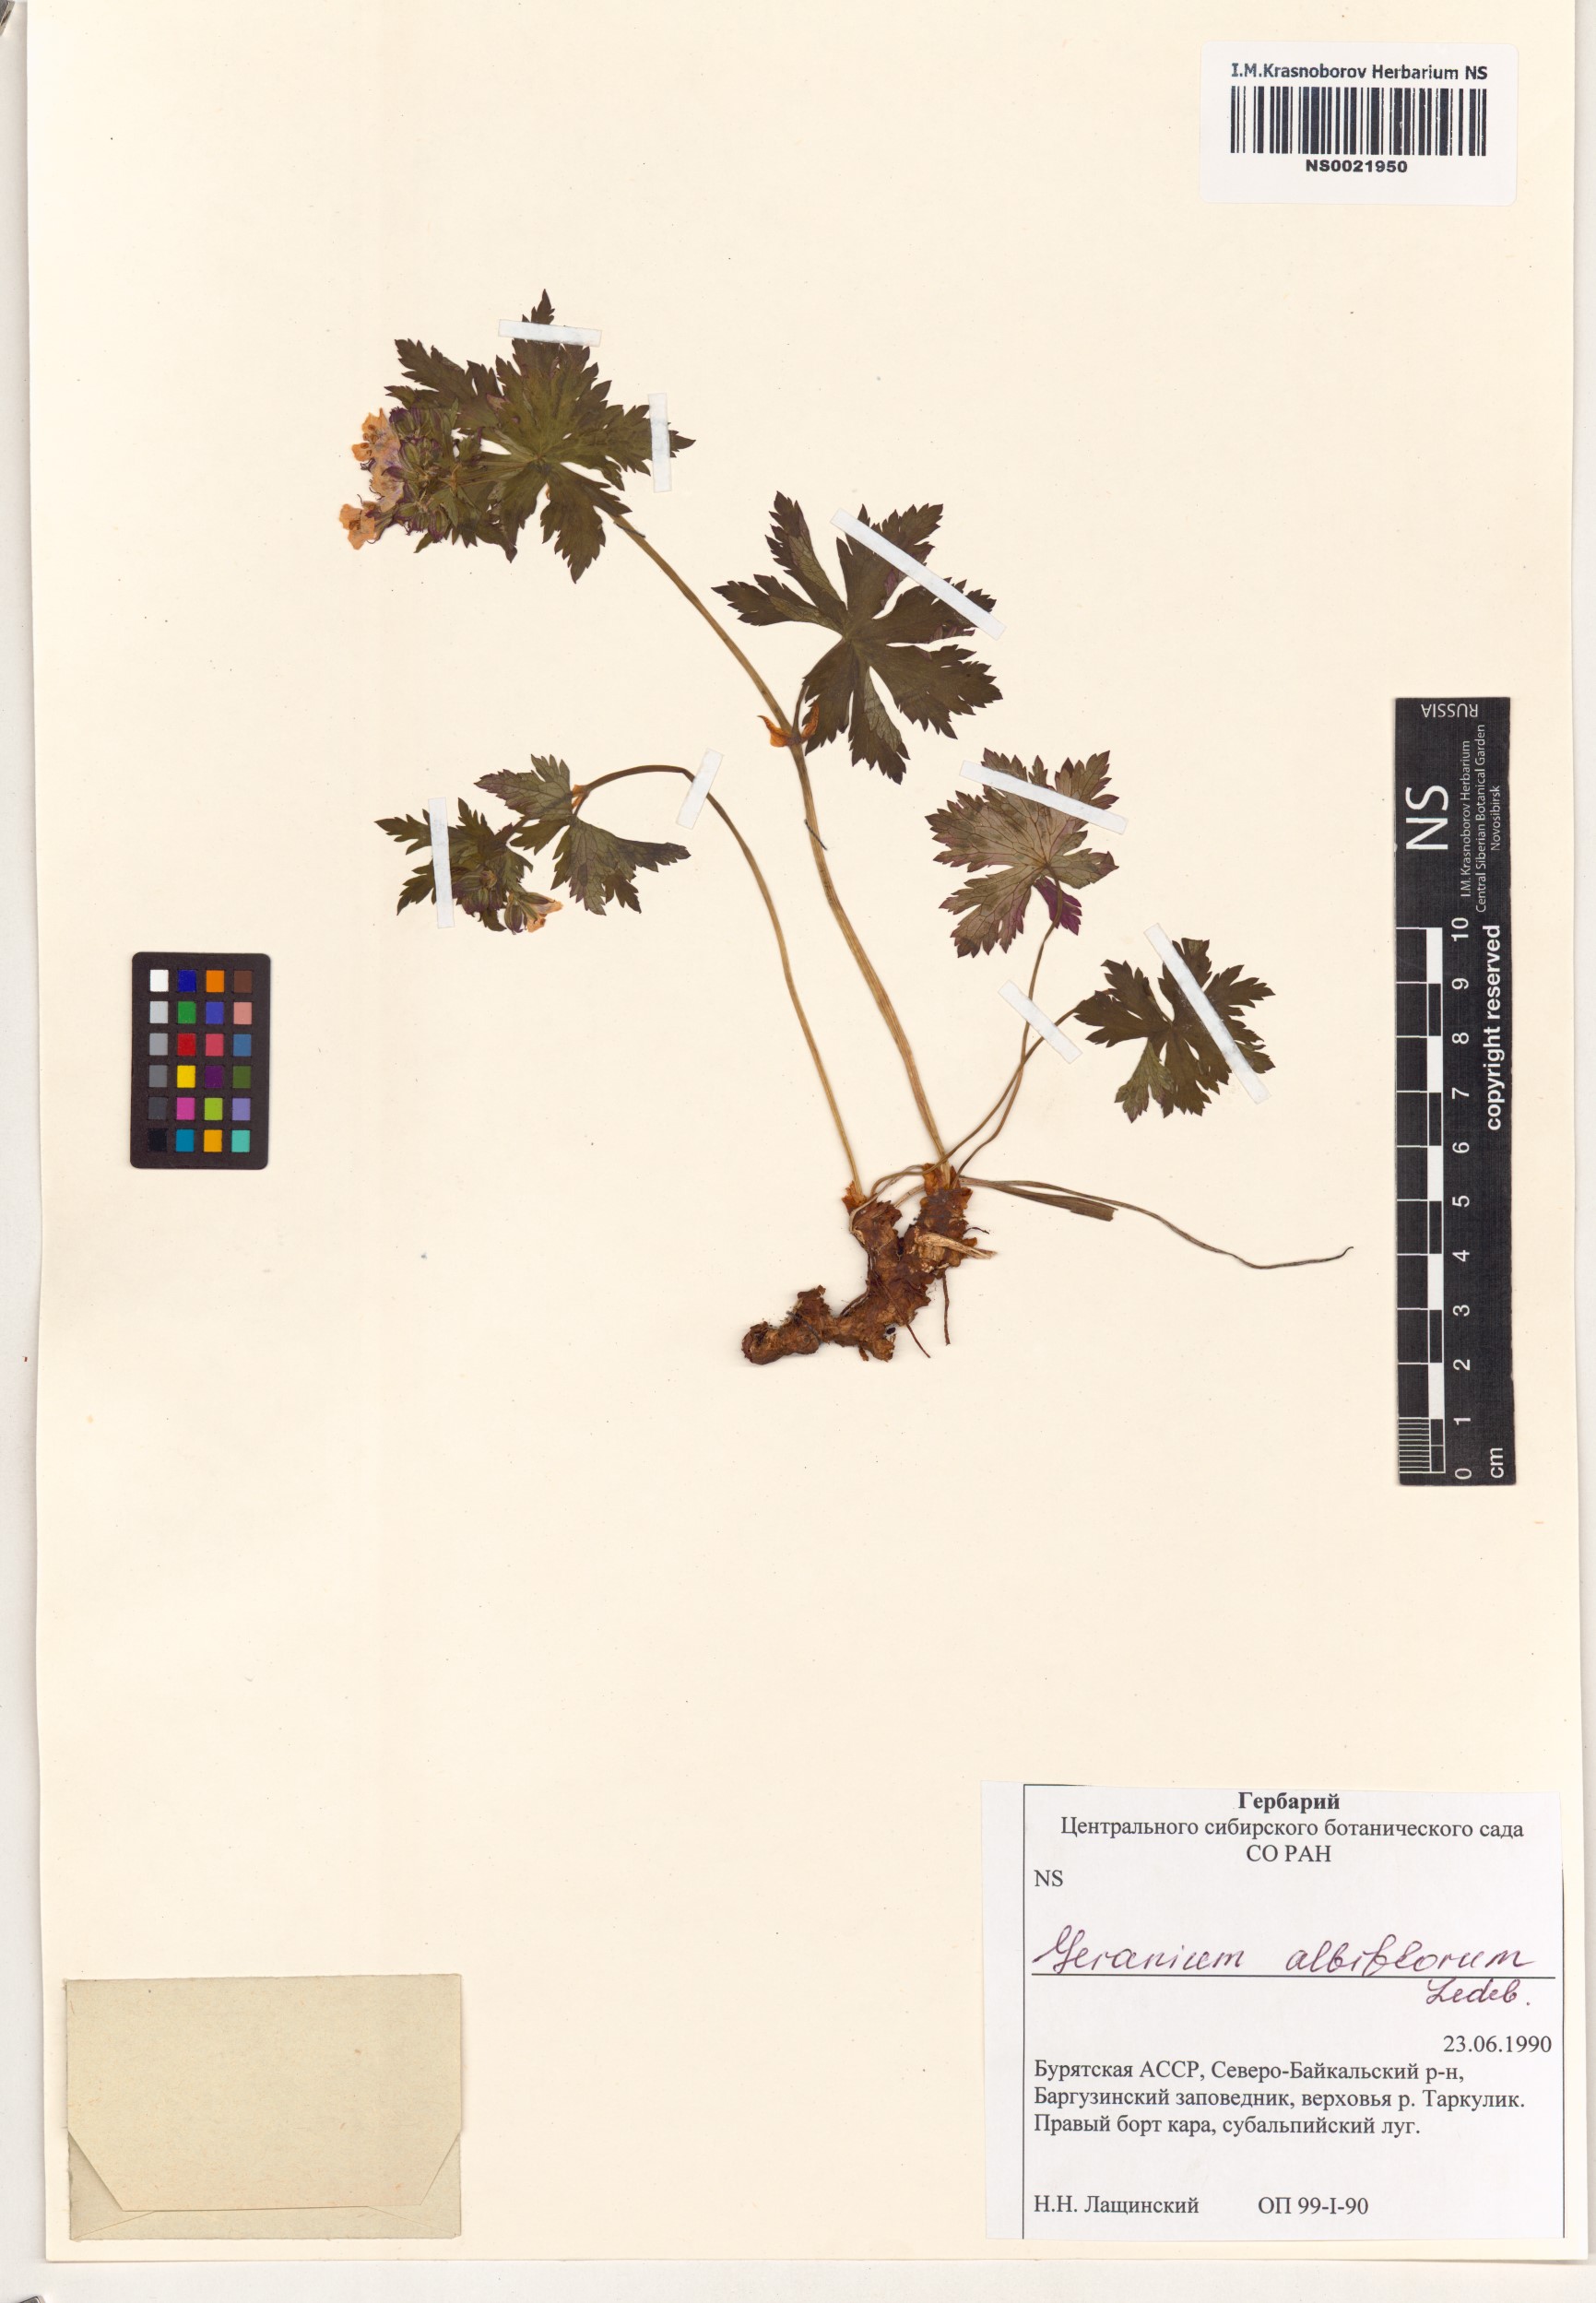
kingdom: Plantae
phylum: Tracheophyta
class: Magnoliopsida
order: Geraniales
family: Geraniaceae
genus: Geranium
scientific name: Geranium albiflorum
